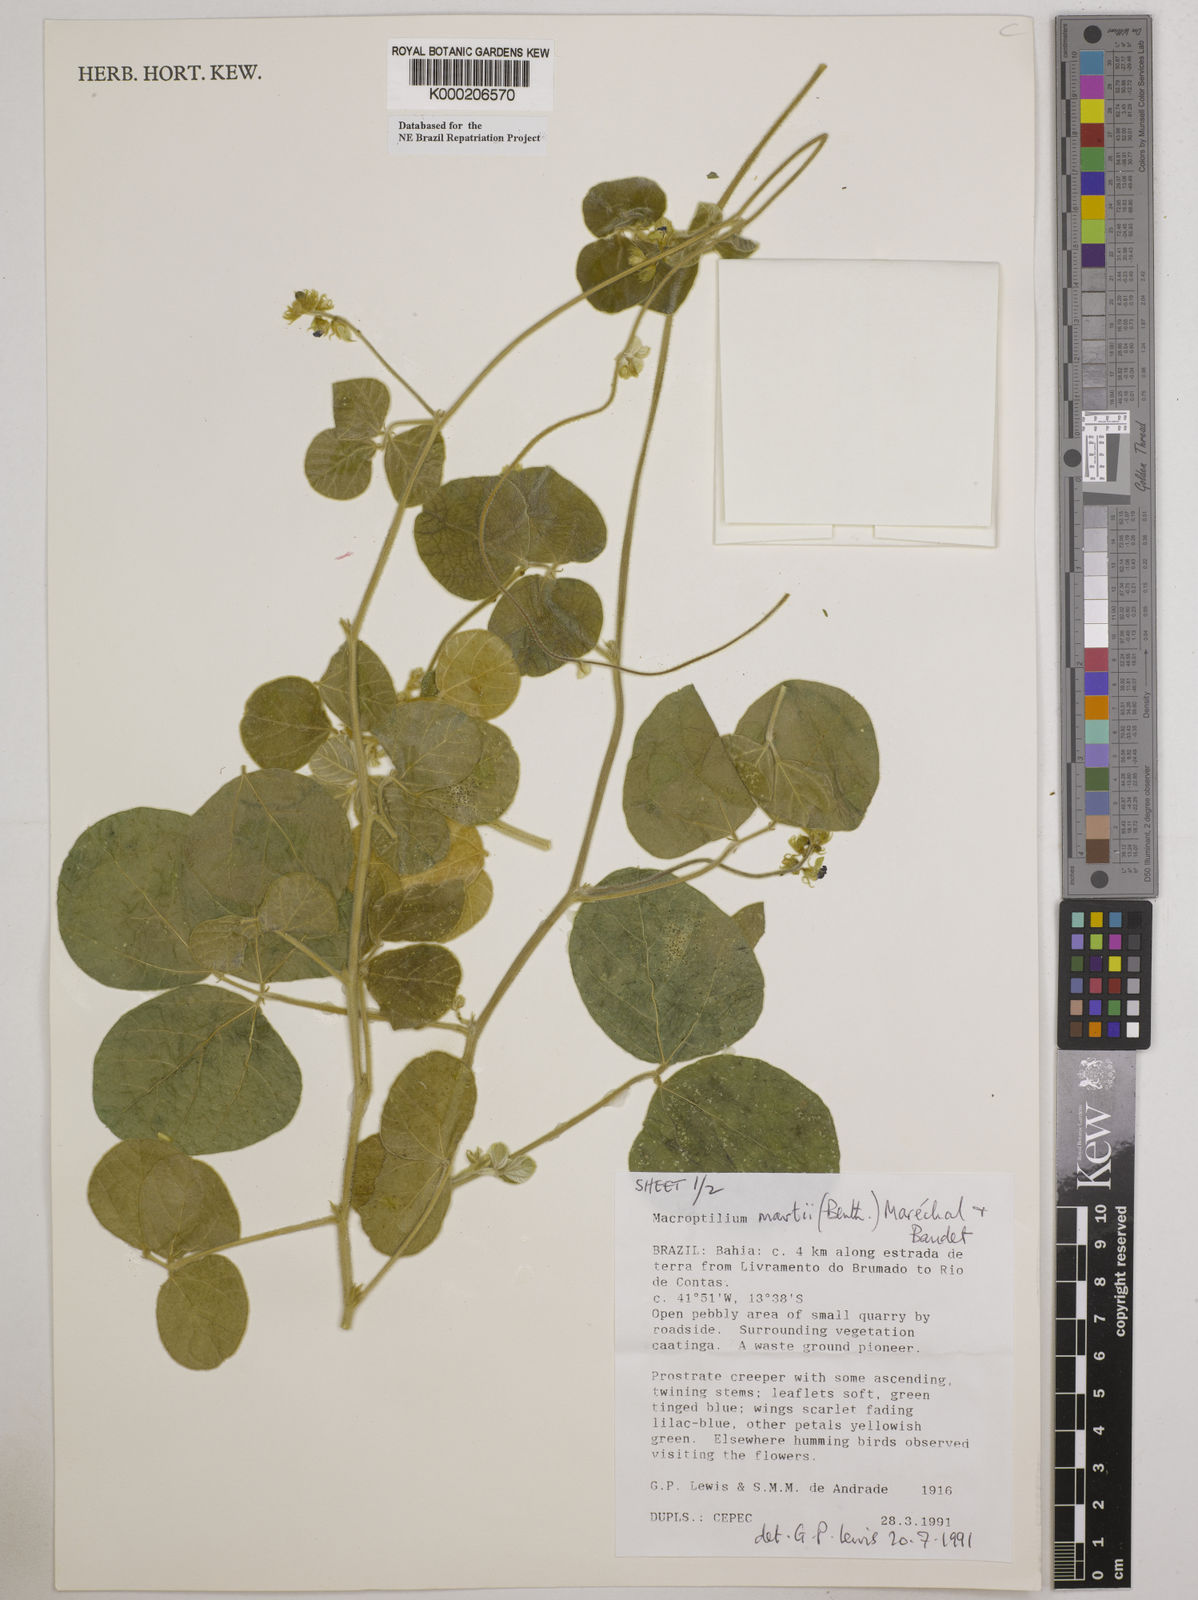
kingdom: Plantae
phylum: Tracheophyta
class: Magnoliopsida
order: Fabales
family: Fabaceae
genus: Macroptilium
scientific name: Macroptilium
